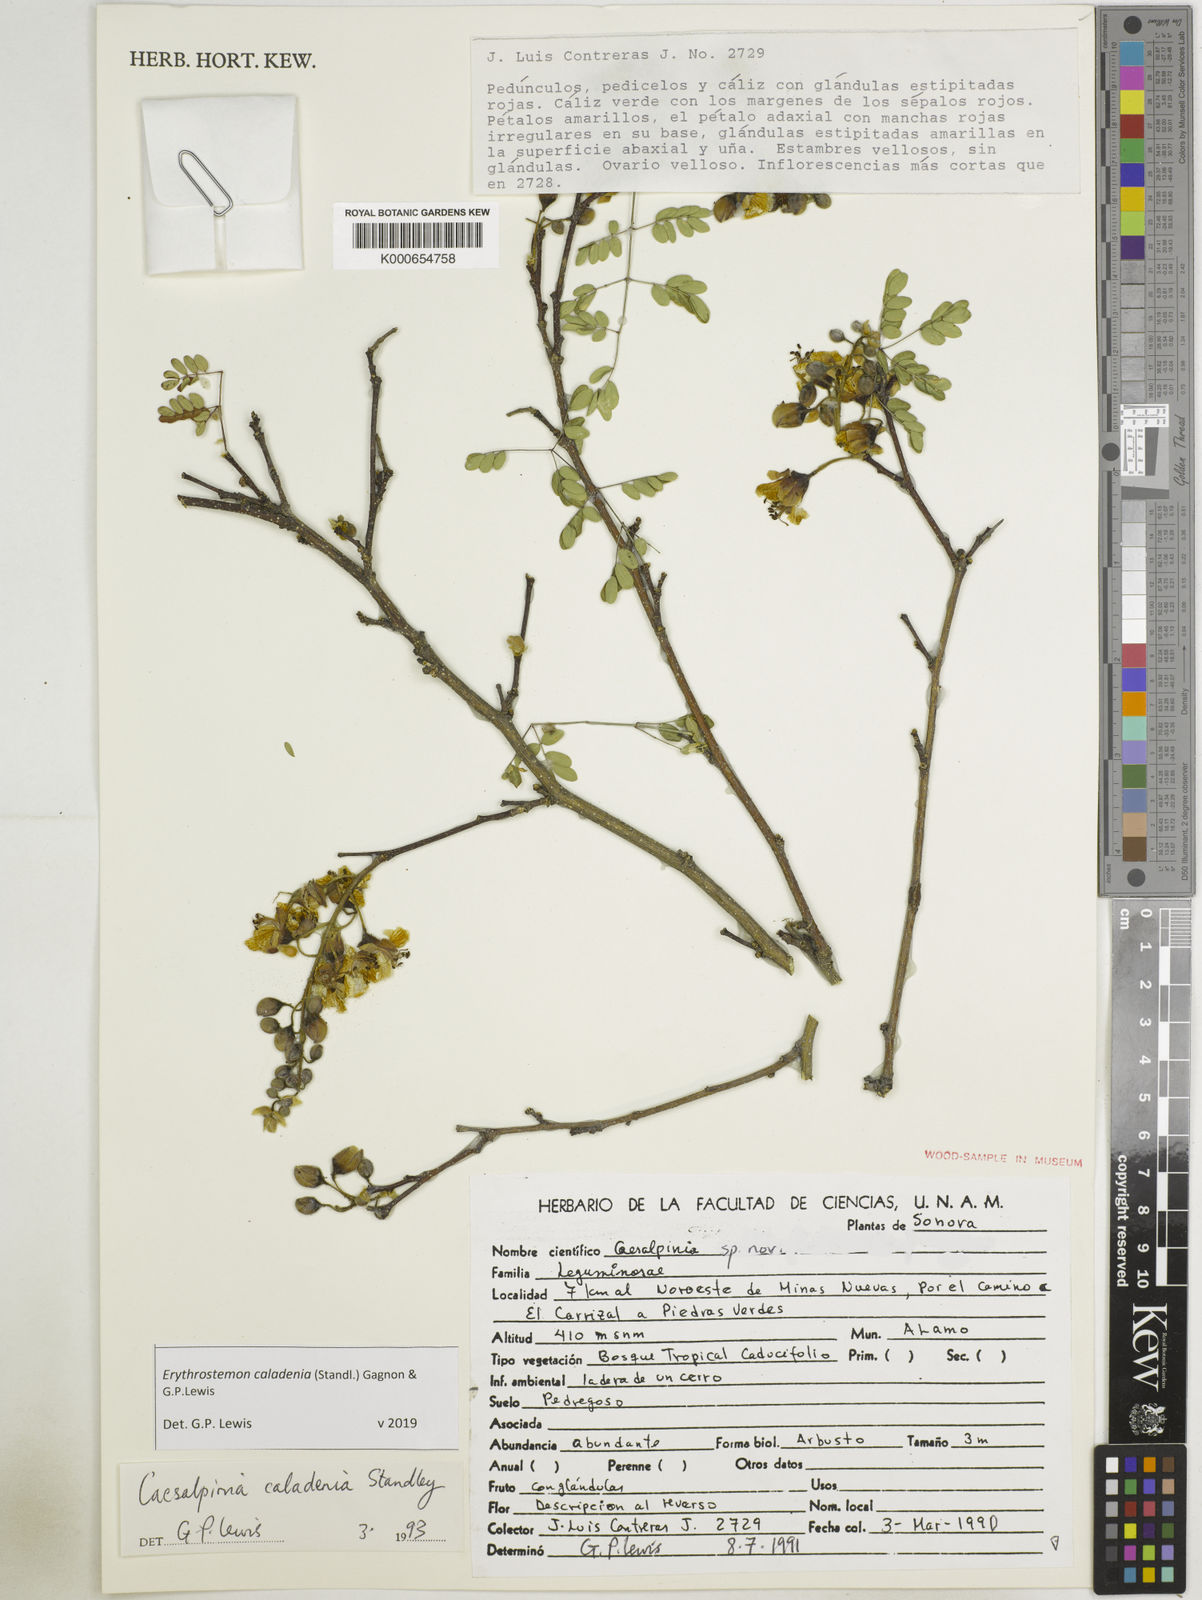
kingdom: Plantae
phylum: Tracheophyta
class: Magnoliopsida
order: Fabales
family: Fabaceae
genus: Erythrostemon
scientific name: Erythrostemon caladenia
